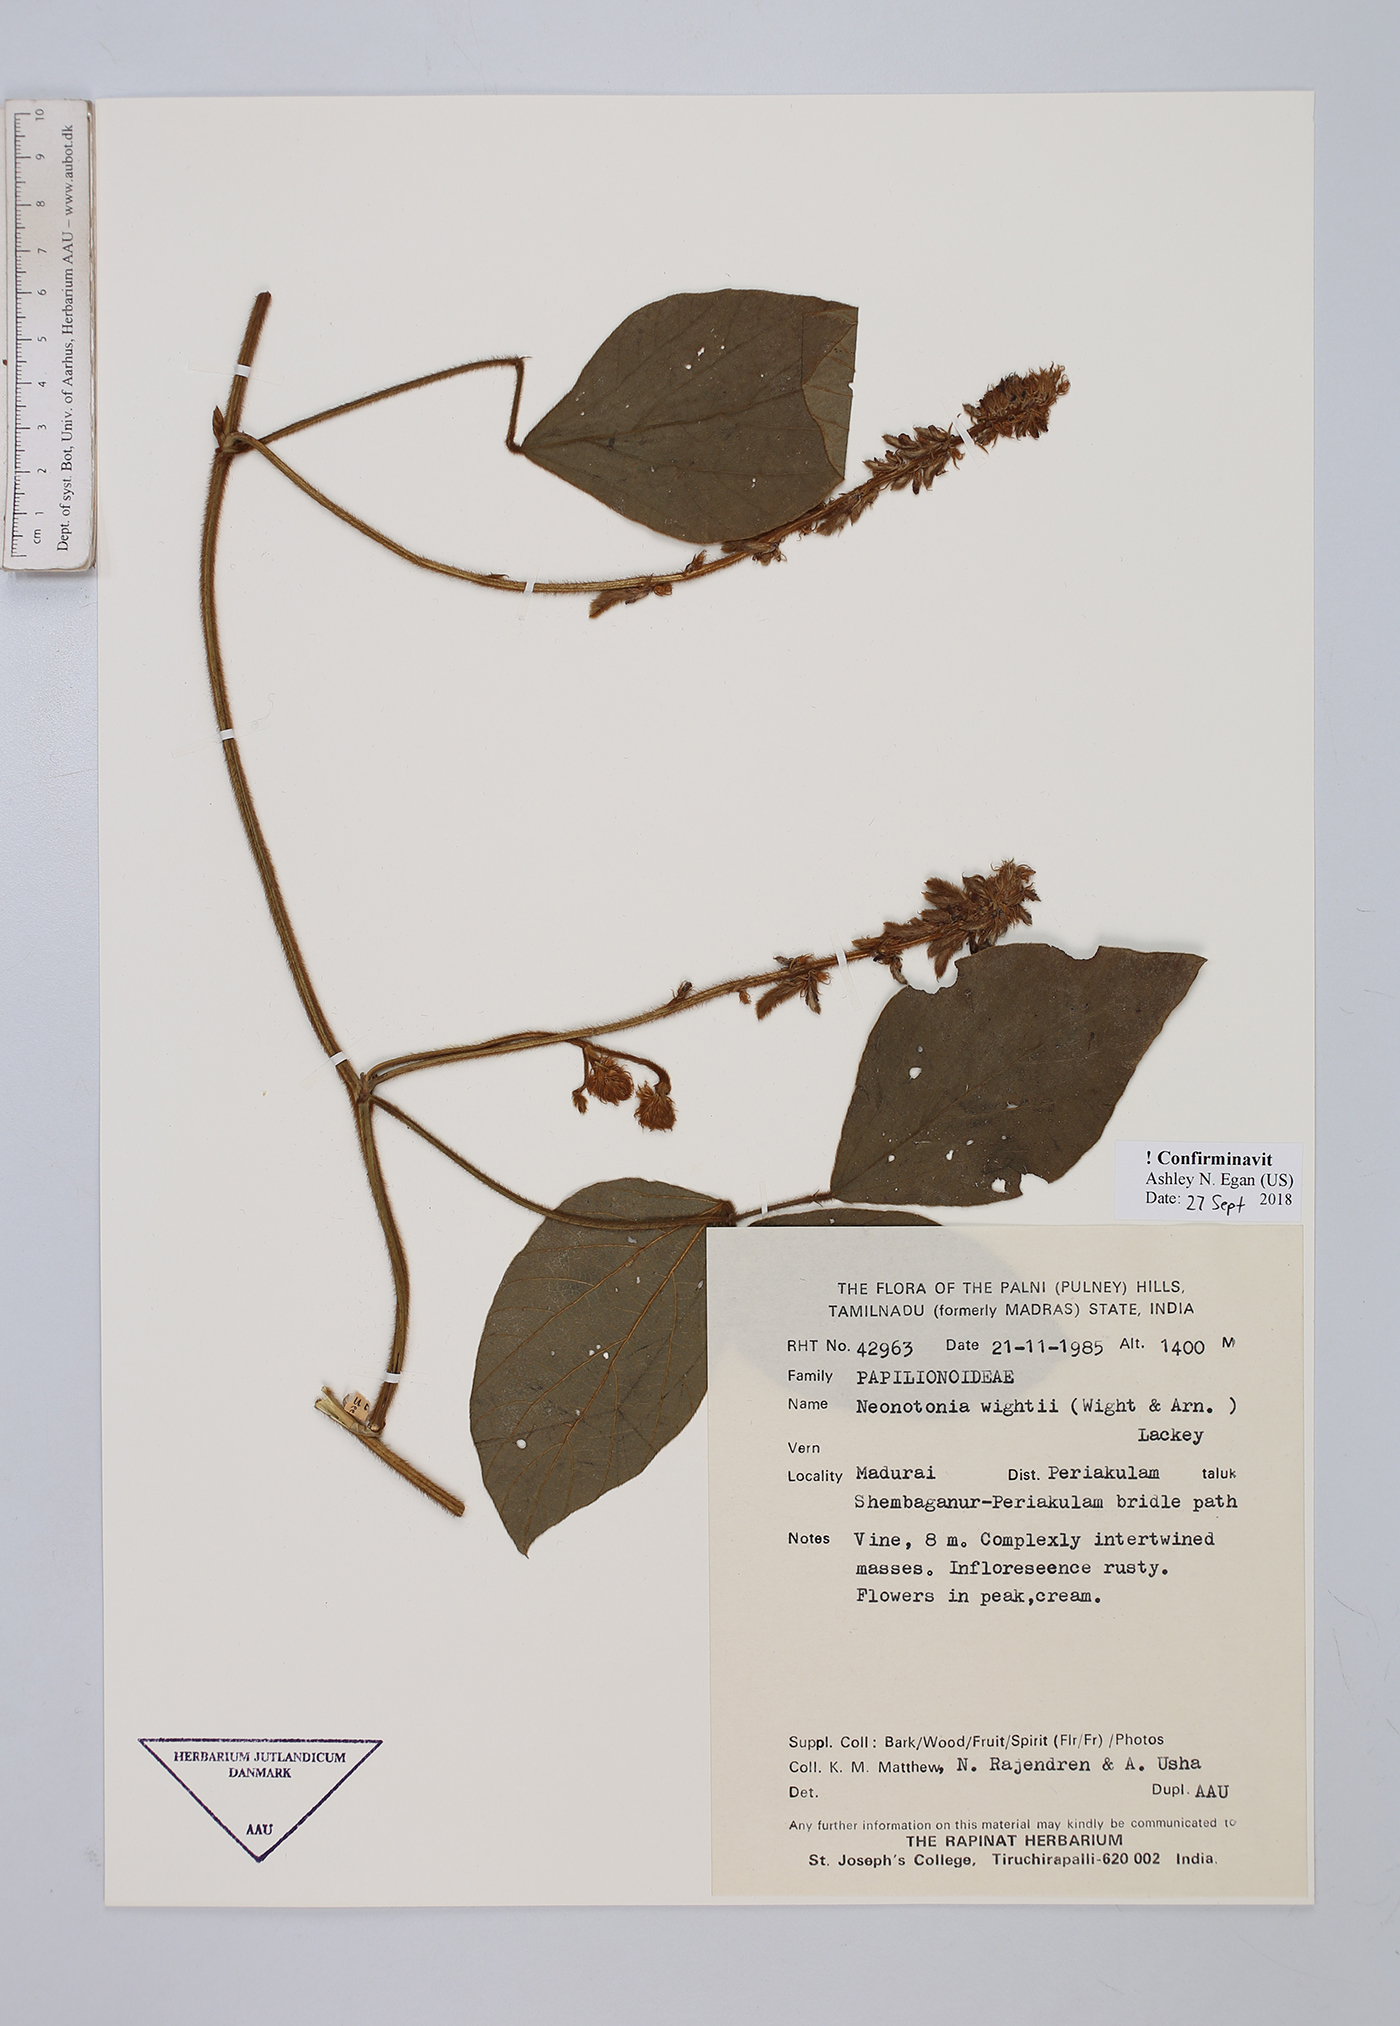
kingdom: Plantae
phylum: Tracheophyta
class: Magnoliopsida
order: Fabales
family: Fabaceae
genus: Neonotonia
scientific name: Neonotonia wightii
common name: Perennial soybean
